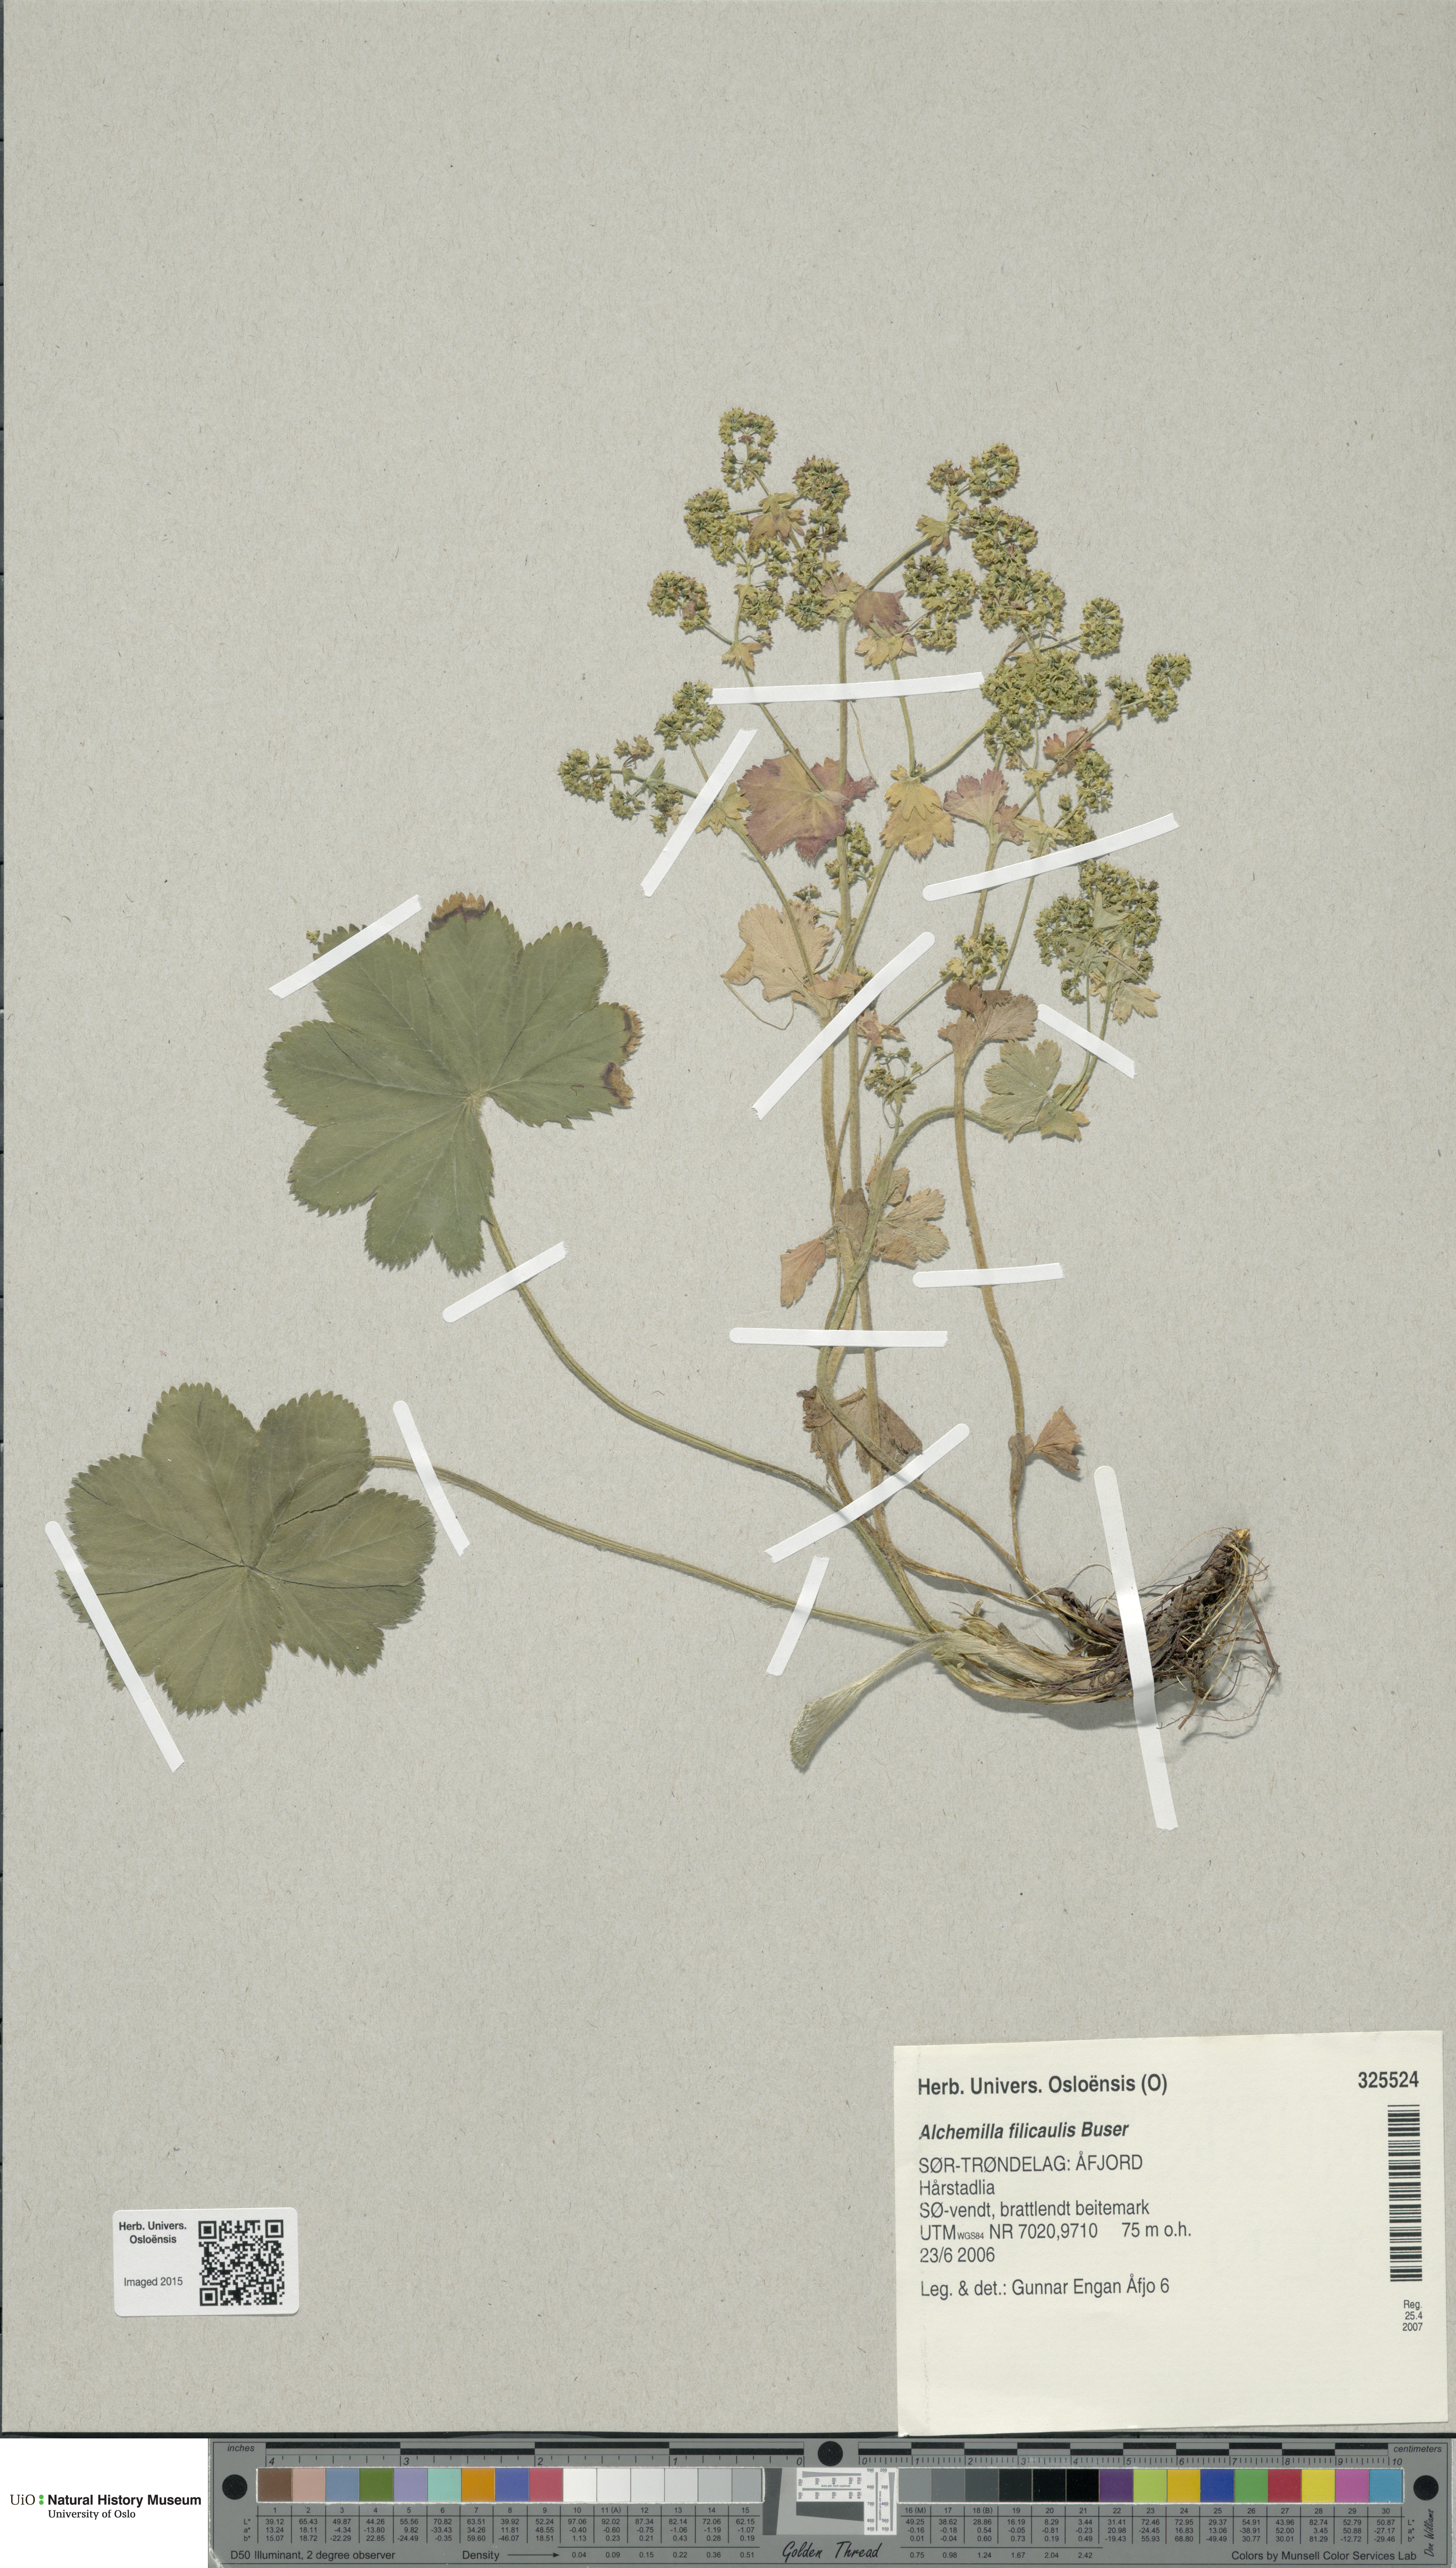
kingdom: Plantae
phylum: Tracheophyta
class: Magnoliopsida
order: Rosales
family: Rosaceae
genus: Alchemilla
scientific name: Alchemilla filicaulis
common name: Hairy lady's-mantle
